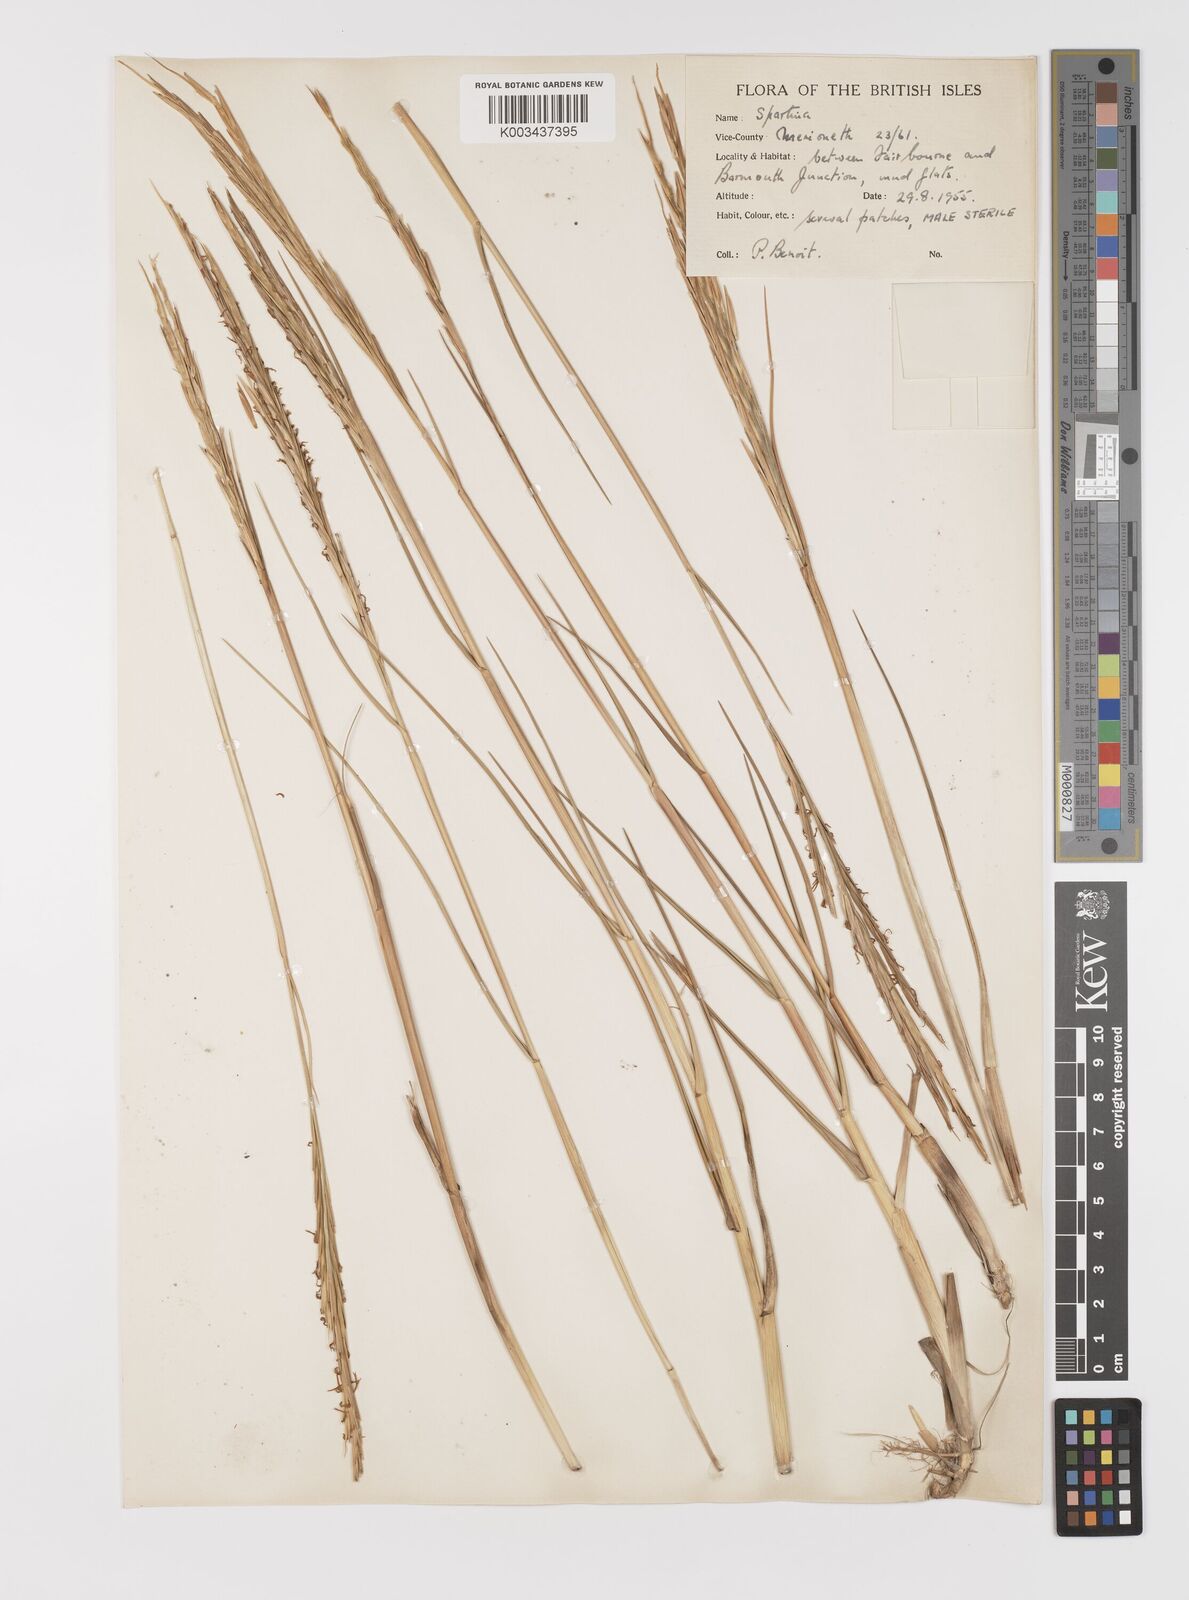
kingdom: Plantae
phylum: Tracheophyta
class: Liliopsida
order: Poales
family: Poaceae
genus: Sporobolus
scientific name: Sporobolus townsendii
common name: Townsend's cordgrass
